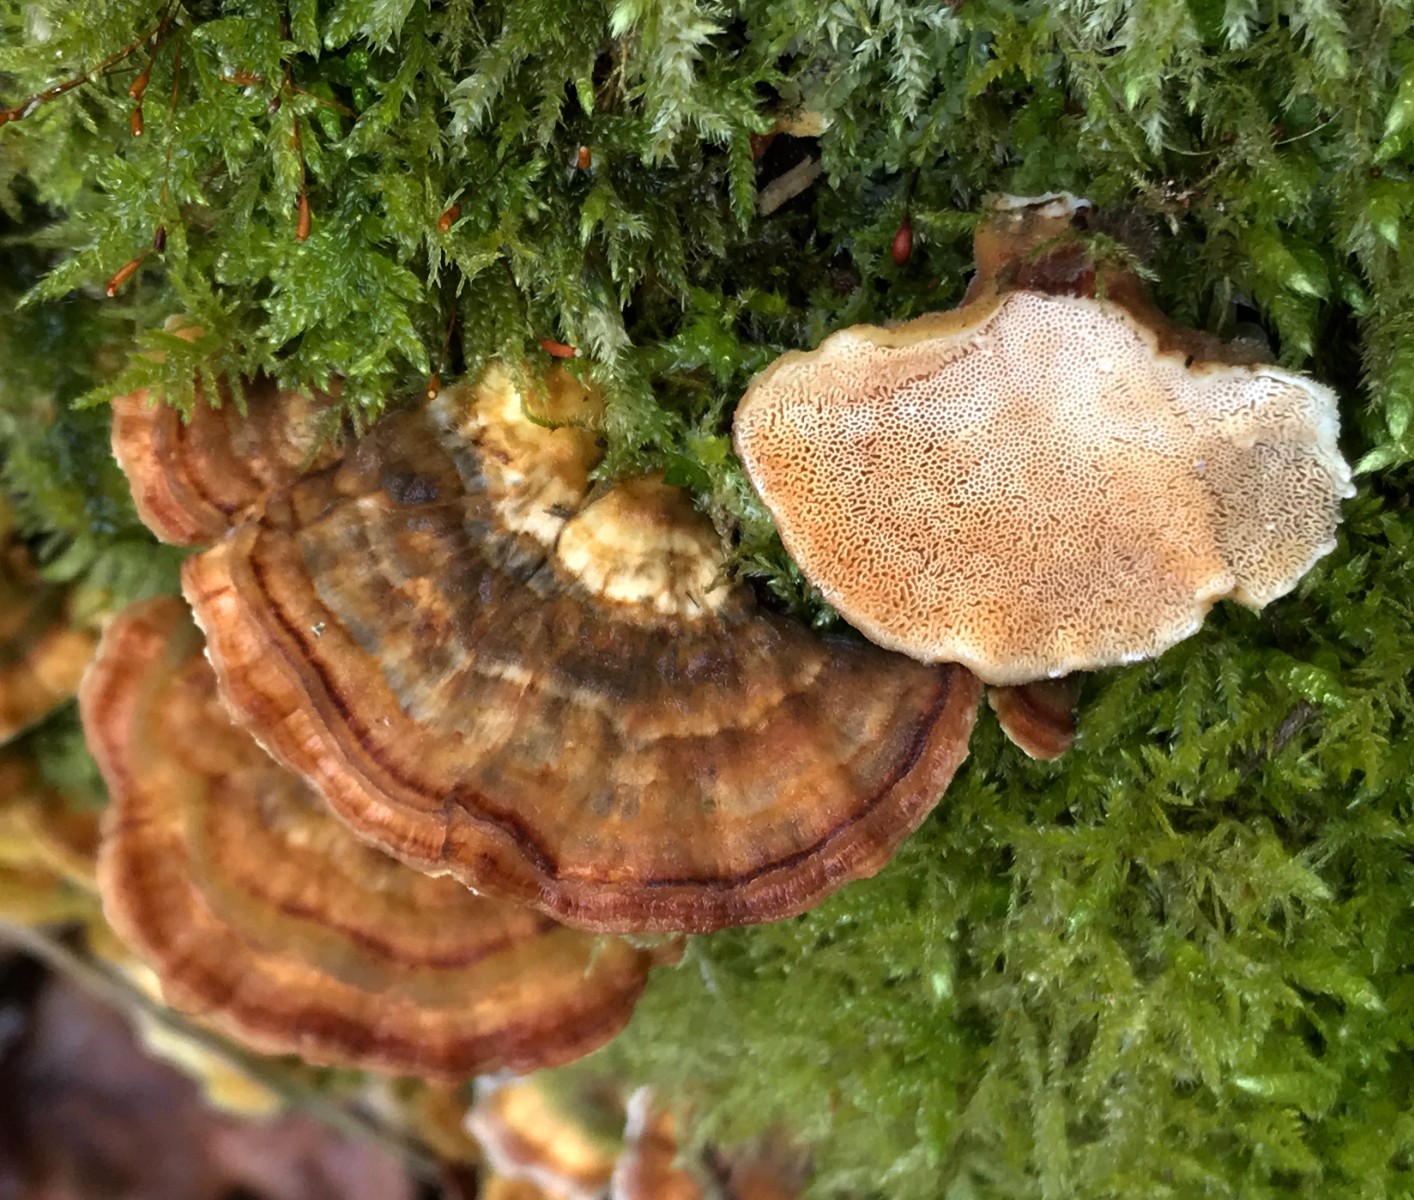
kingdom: Fungi
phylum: Basidiomycota
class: Agaricomycetes
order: Polyporales
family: Polyporaceae
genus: Trametes
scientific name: Trametes versicolor
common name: broget læderporesvamp
